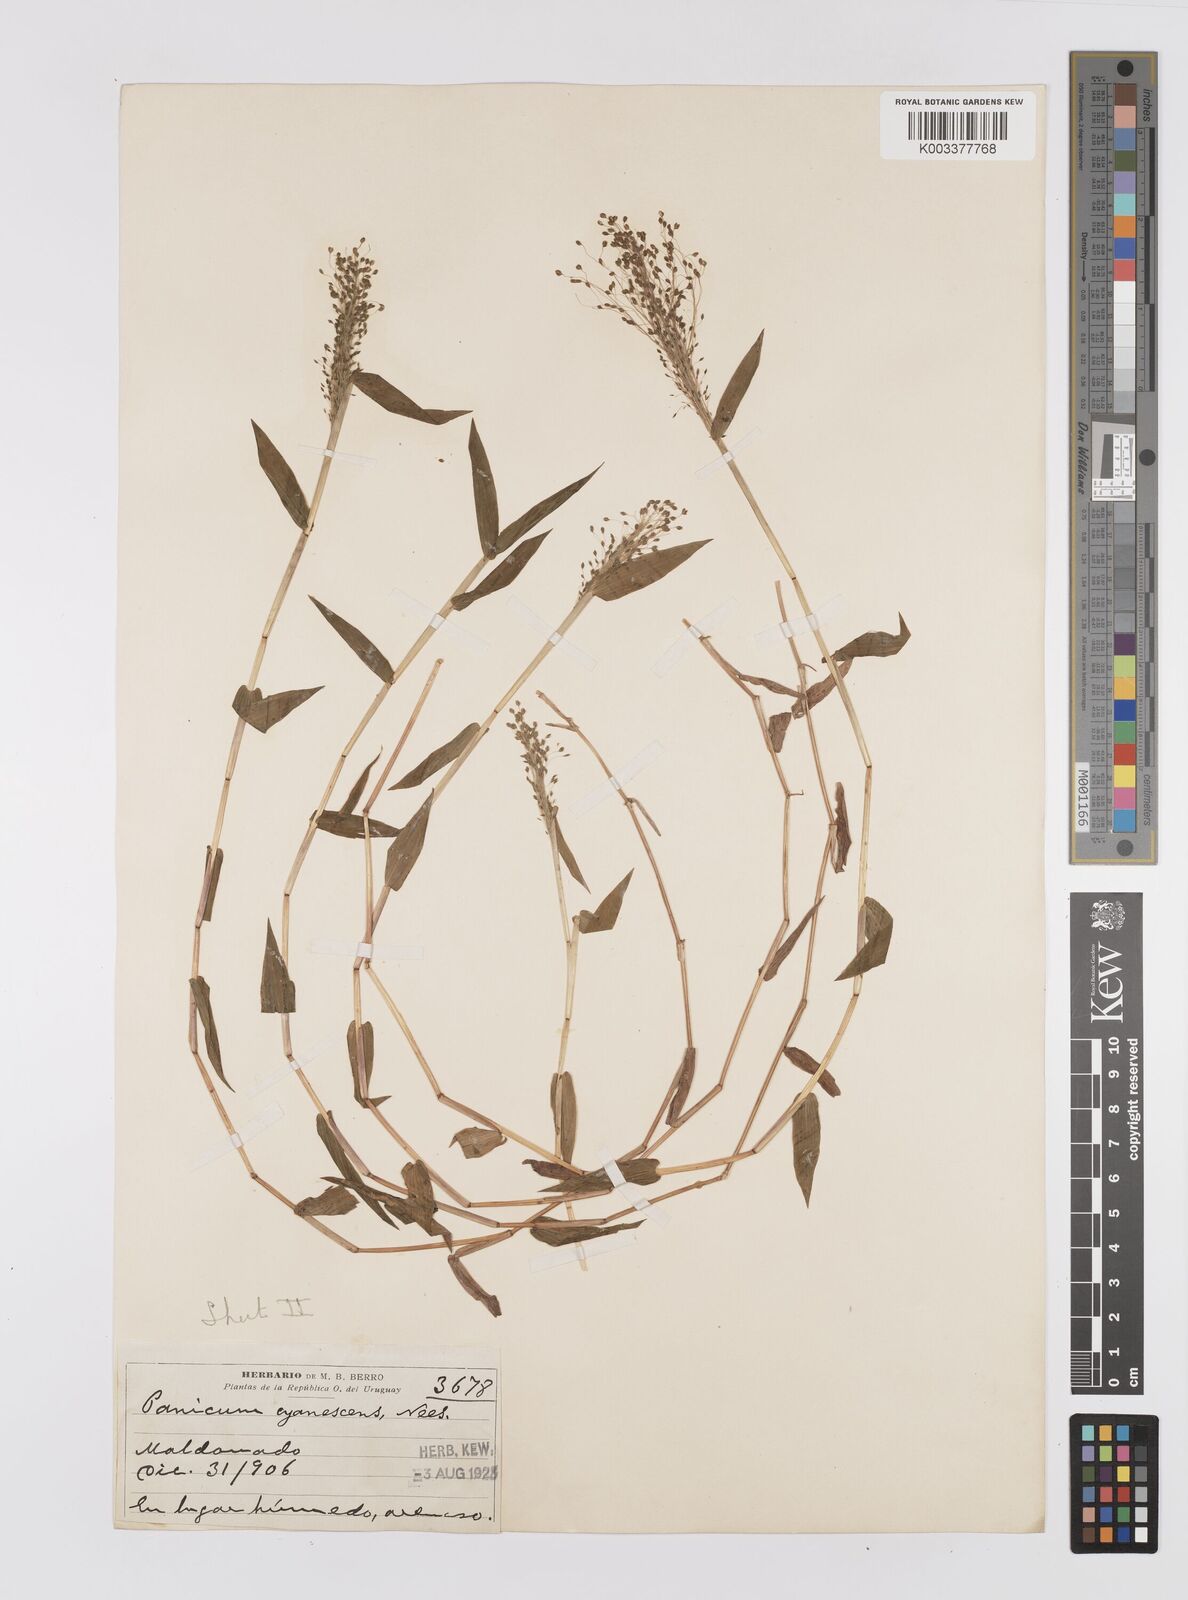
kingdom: Plantae
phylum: Tracheophyta
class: Liliopsida
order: Poales
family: Poaceae
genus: Trichanthecium
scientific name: Trichanthecium schwackeanum
